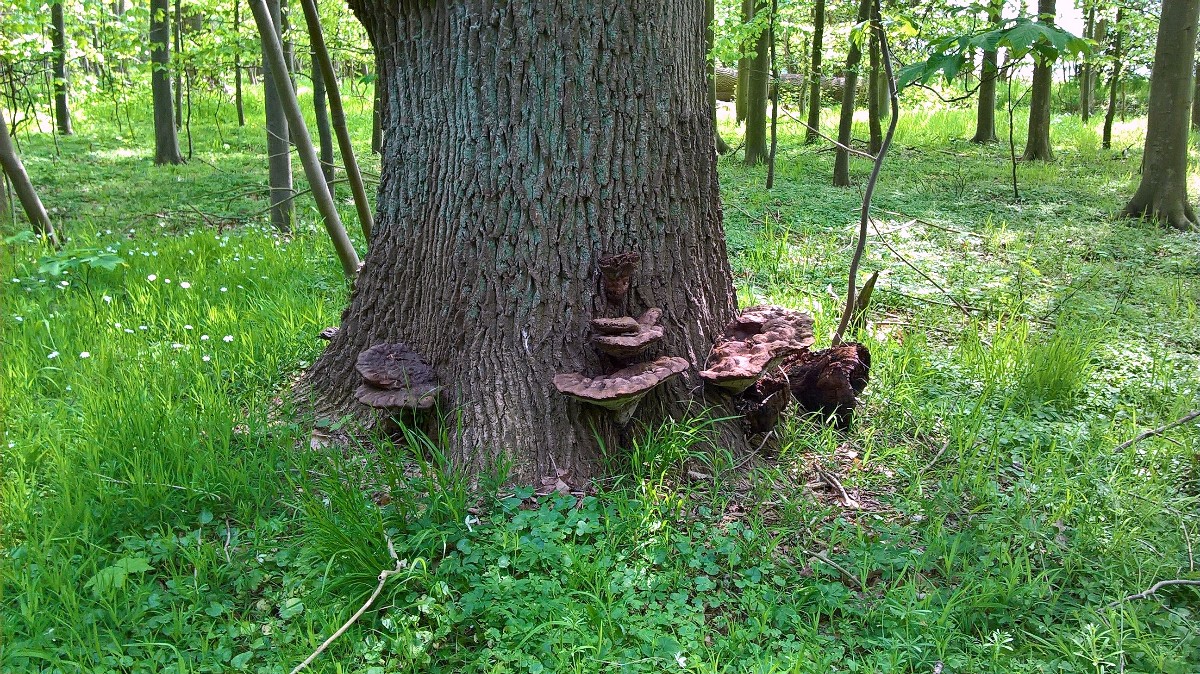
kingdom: Fungi
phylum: Basidiomycota
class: Agaricomycetes
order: Hymenochaetales
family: Hymenochaetaceae
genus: Pseudoinonotus
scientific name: Pseudoinonotus dryadeus
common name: ege-spejlporesvamp
